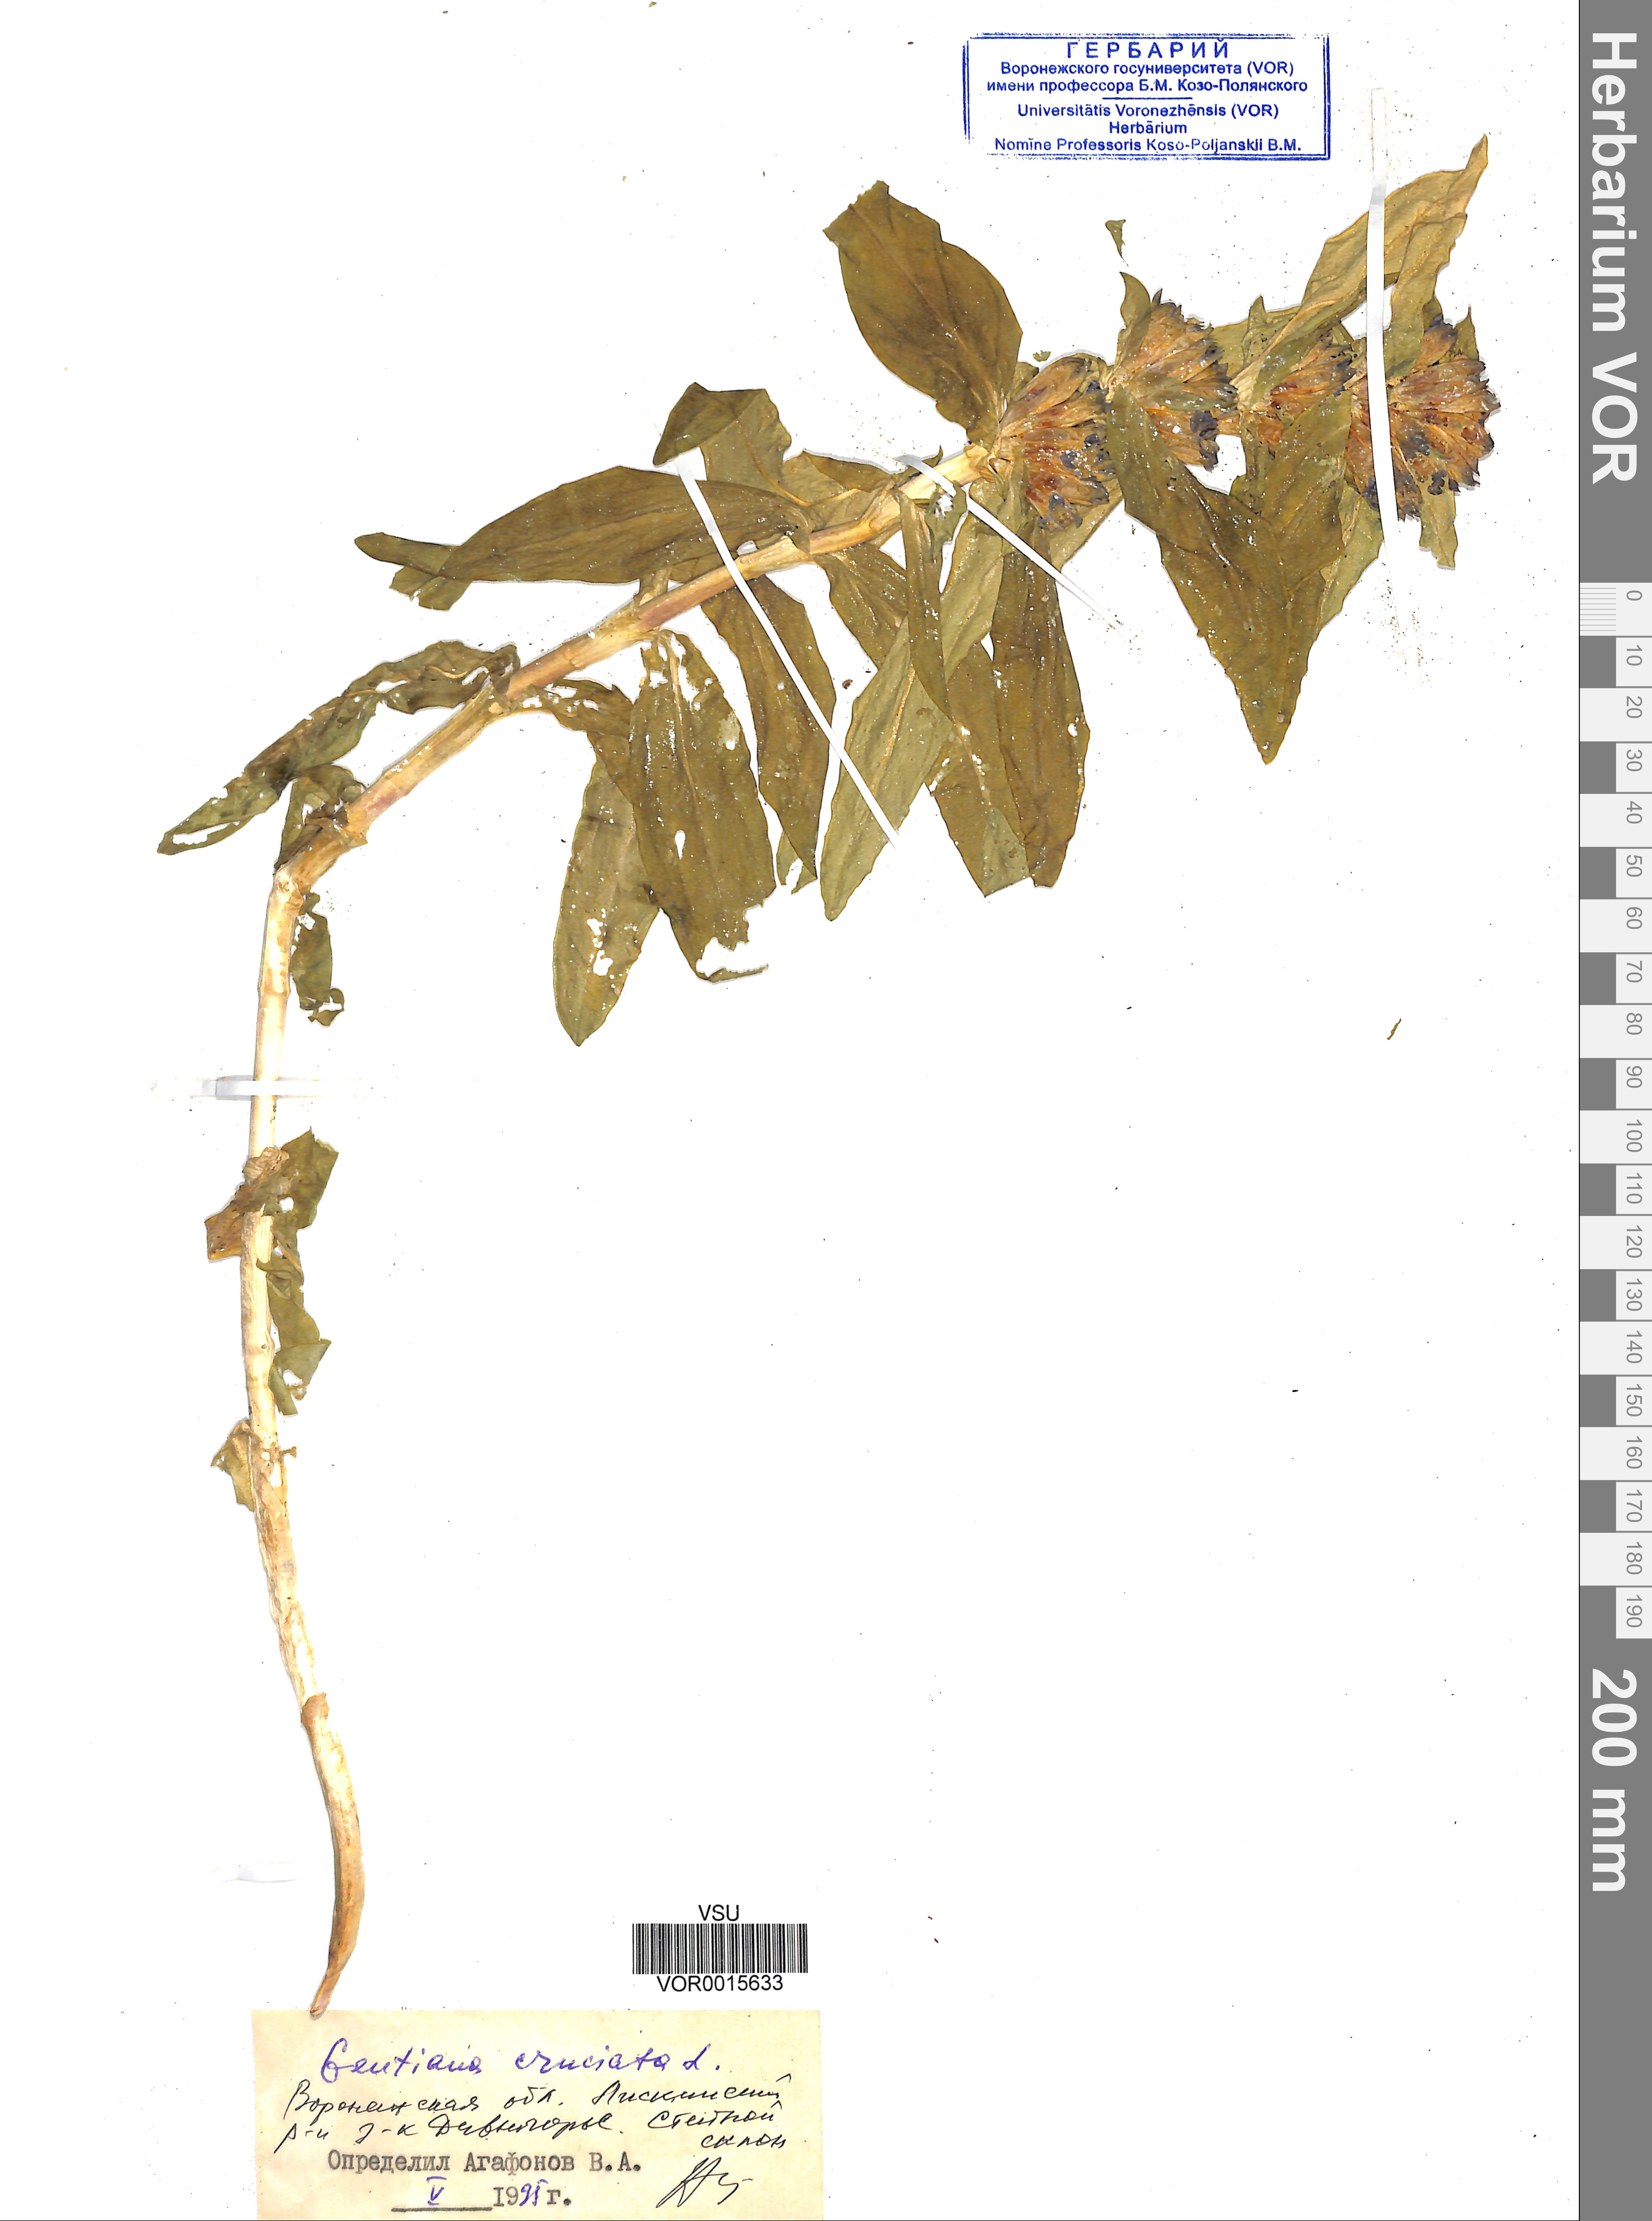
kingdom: Plantae
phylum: Tracheophyta
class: Magnoliopsida
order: Gentianales
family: Gentianaceae
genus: Gentiana
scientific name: Gentiana cruciata
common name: Cross gentian
